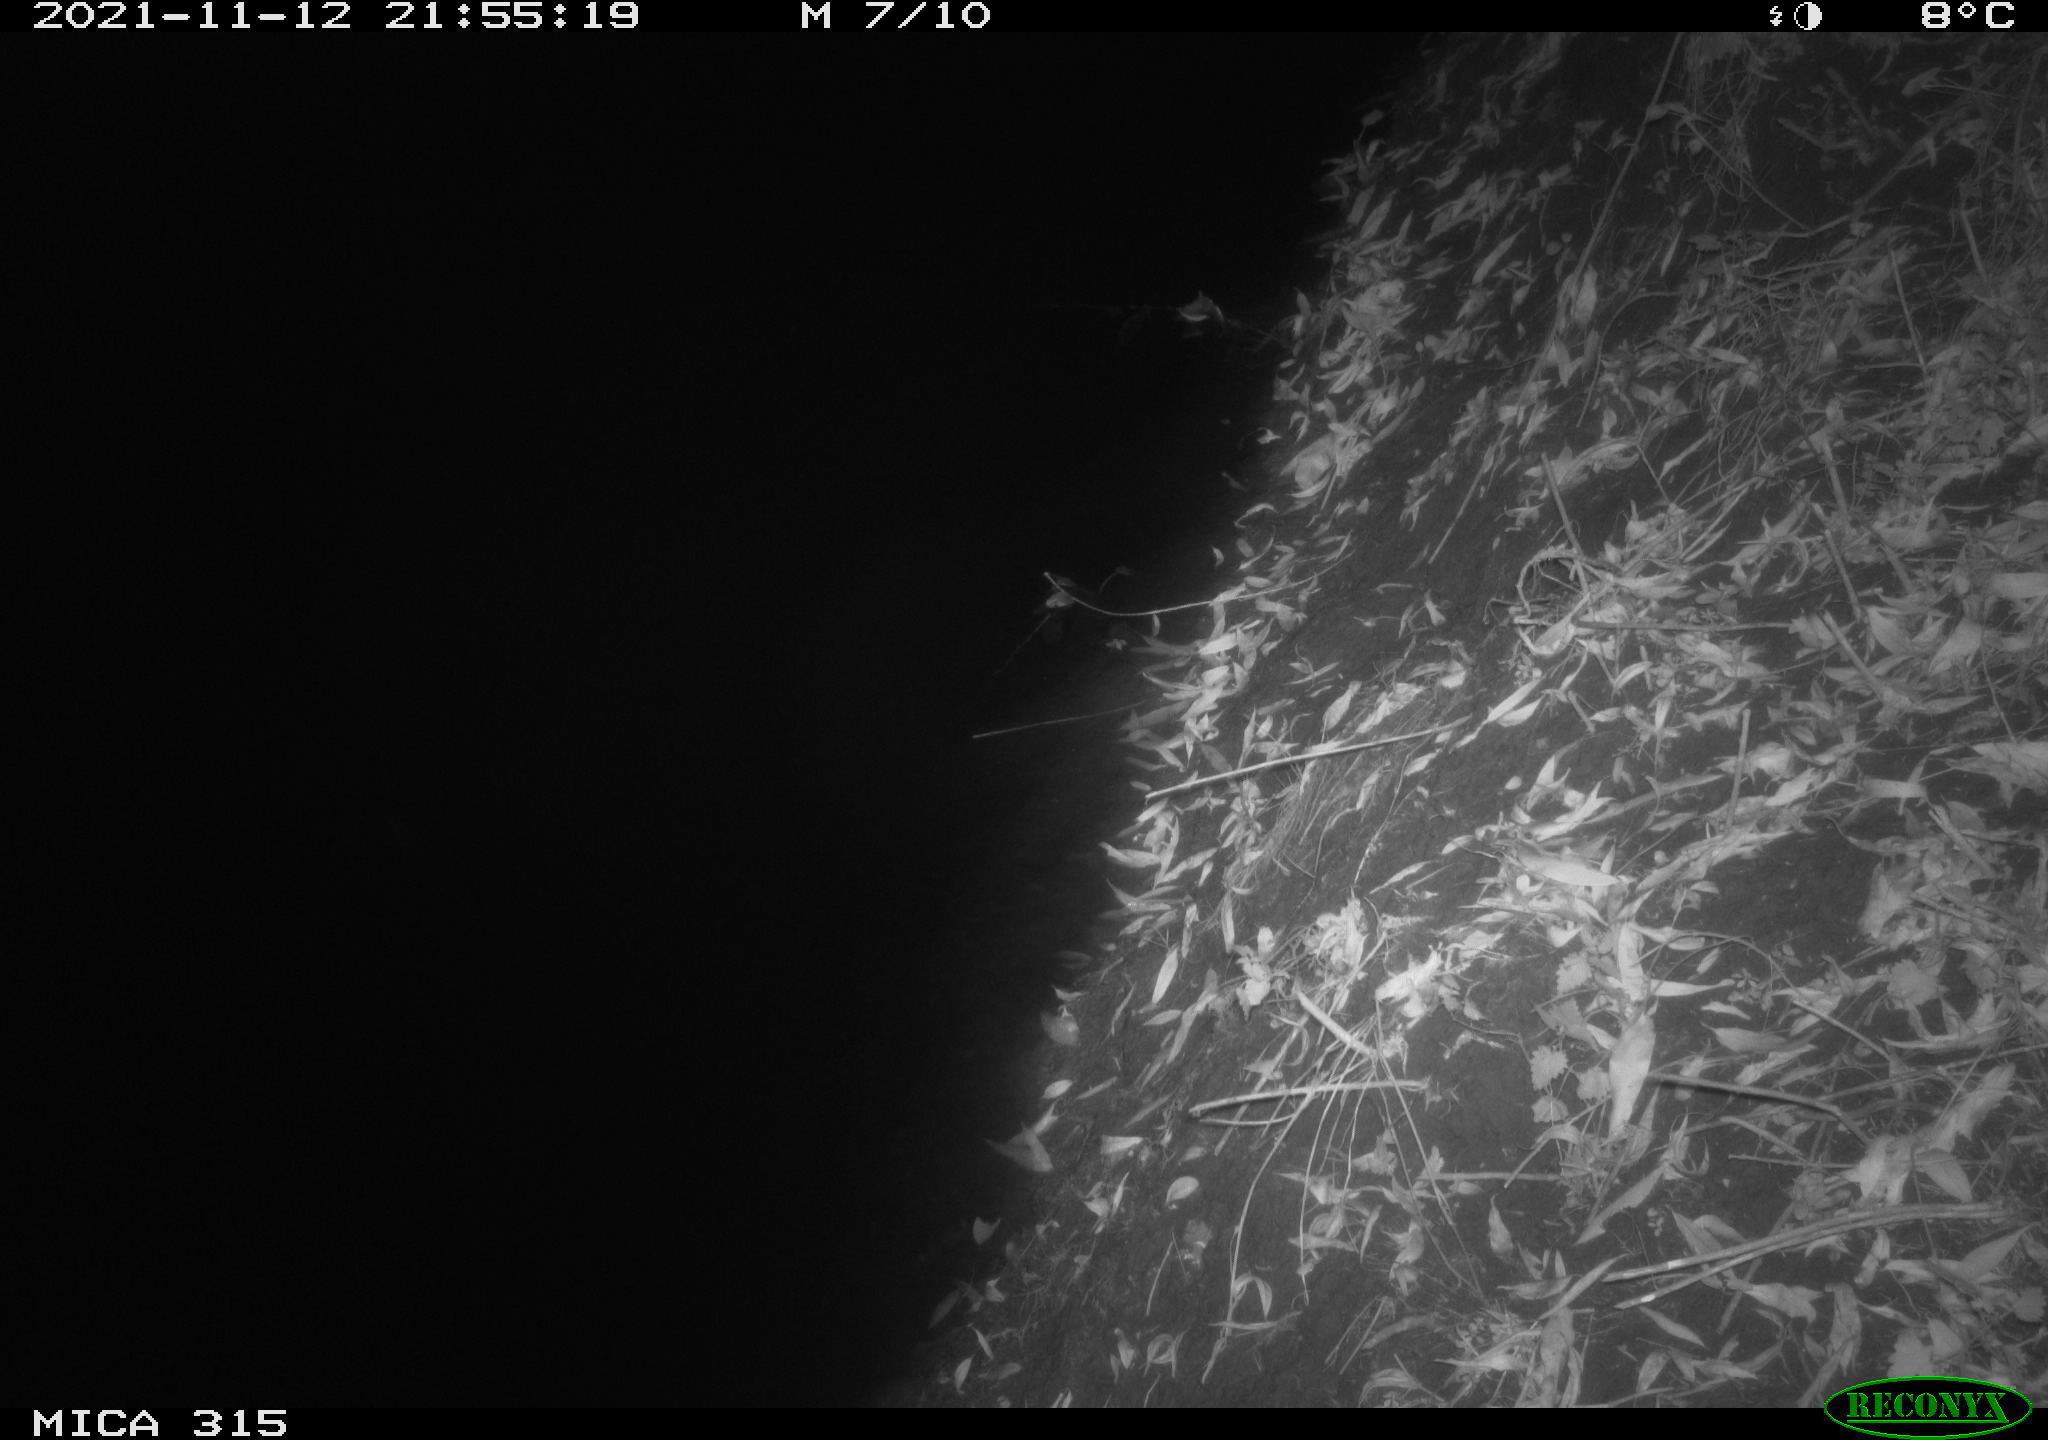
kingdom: Animalia
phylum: Chordata
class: Mammalia
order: Rodentia
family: Muridae
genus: Rattus
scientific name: Rattus norvegicus
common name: Brown rat
